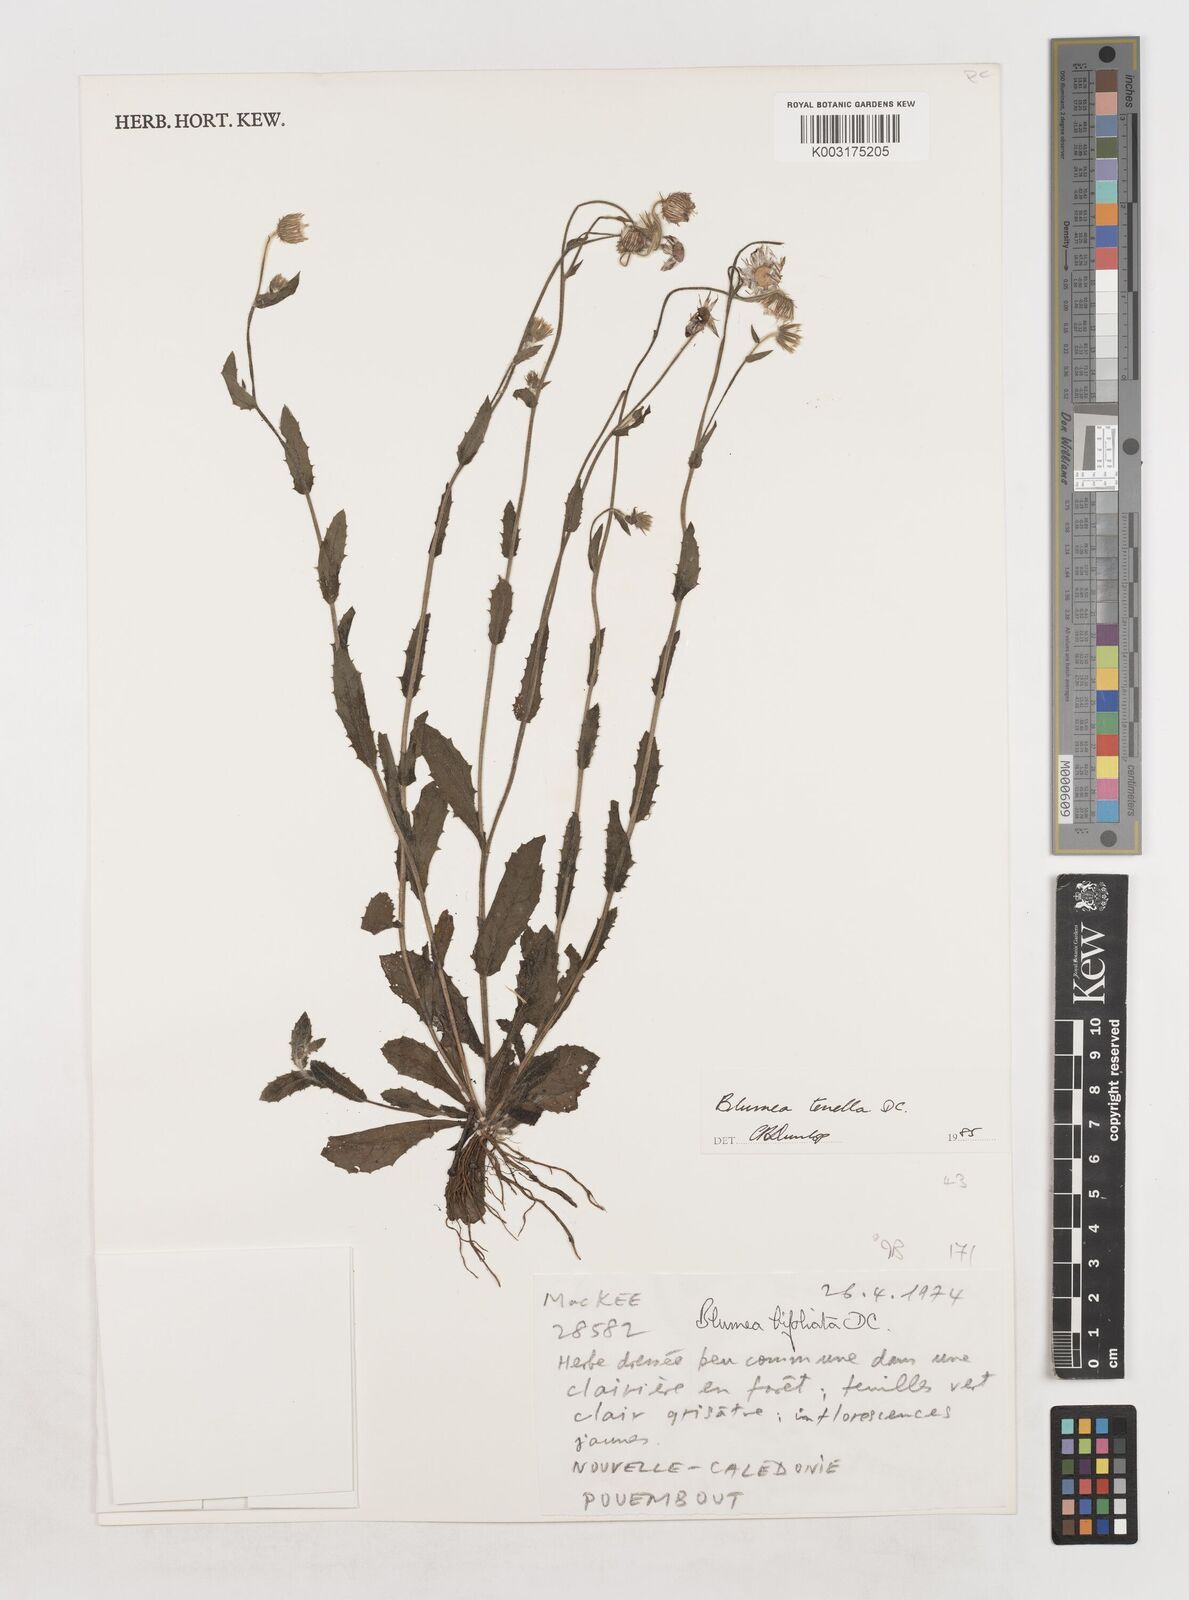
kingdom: Plantae
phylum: Tracheophyta
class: Magnoliopsida
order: Asterales
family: Asteraceae
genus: Blumea
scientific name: Blumea bifoliata
